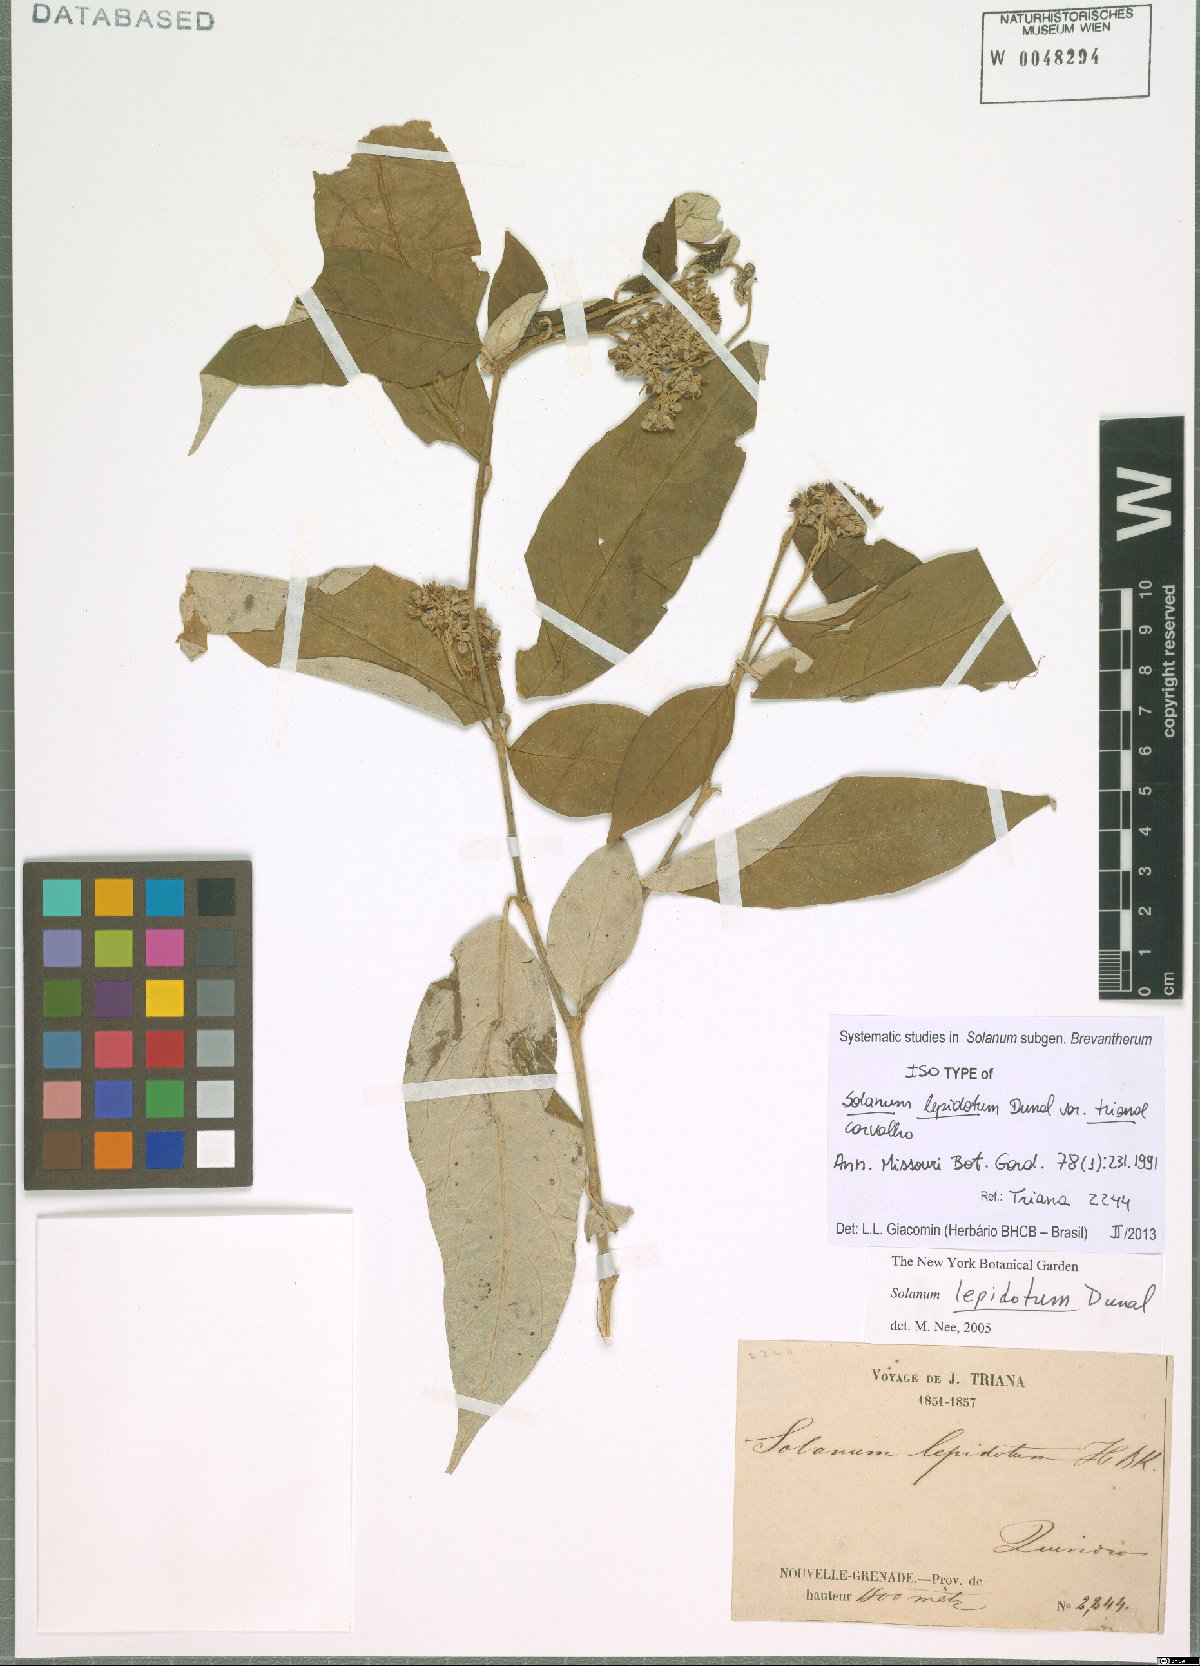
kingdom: Plantae
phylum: Tracheophyta
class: Magnoliopsida
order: Solanales
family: Solanaceae
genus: Solanum
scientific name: Solanum lepidotum
